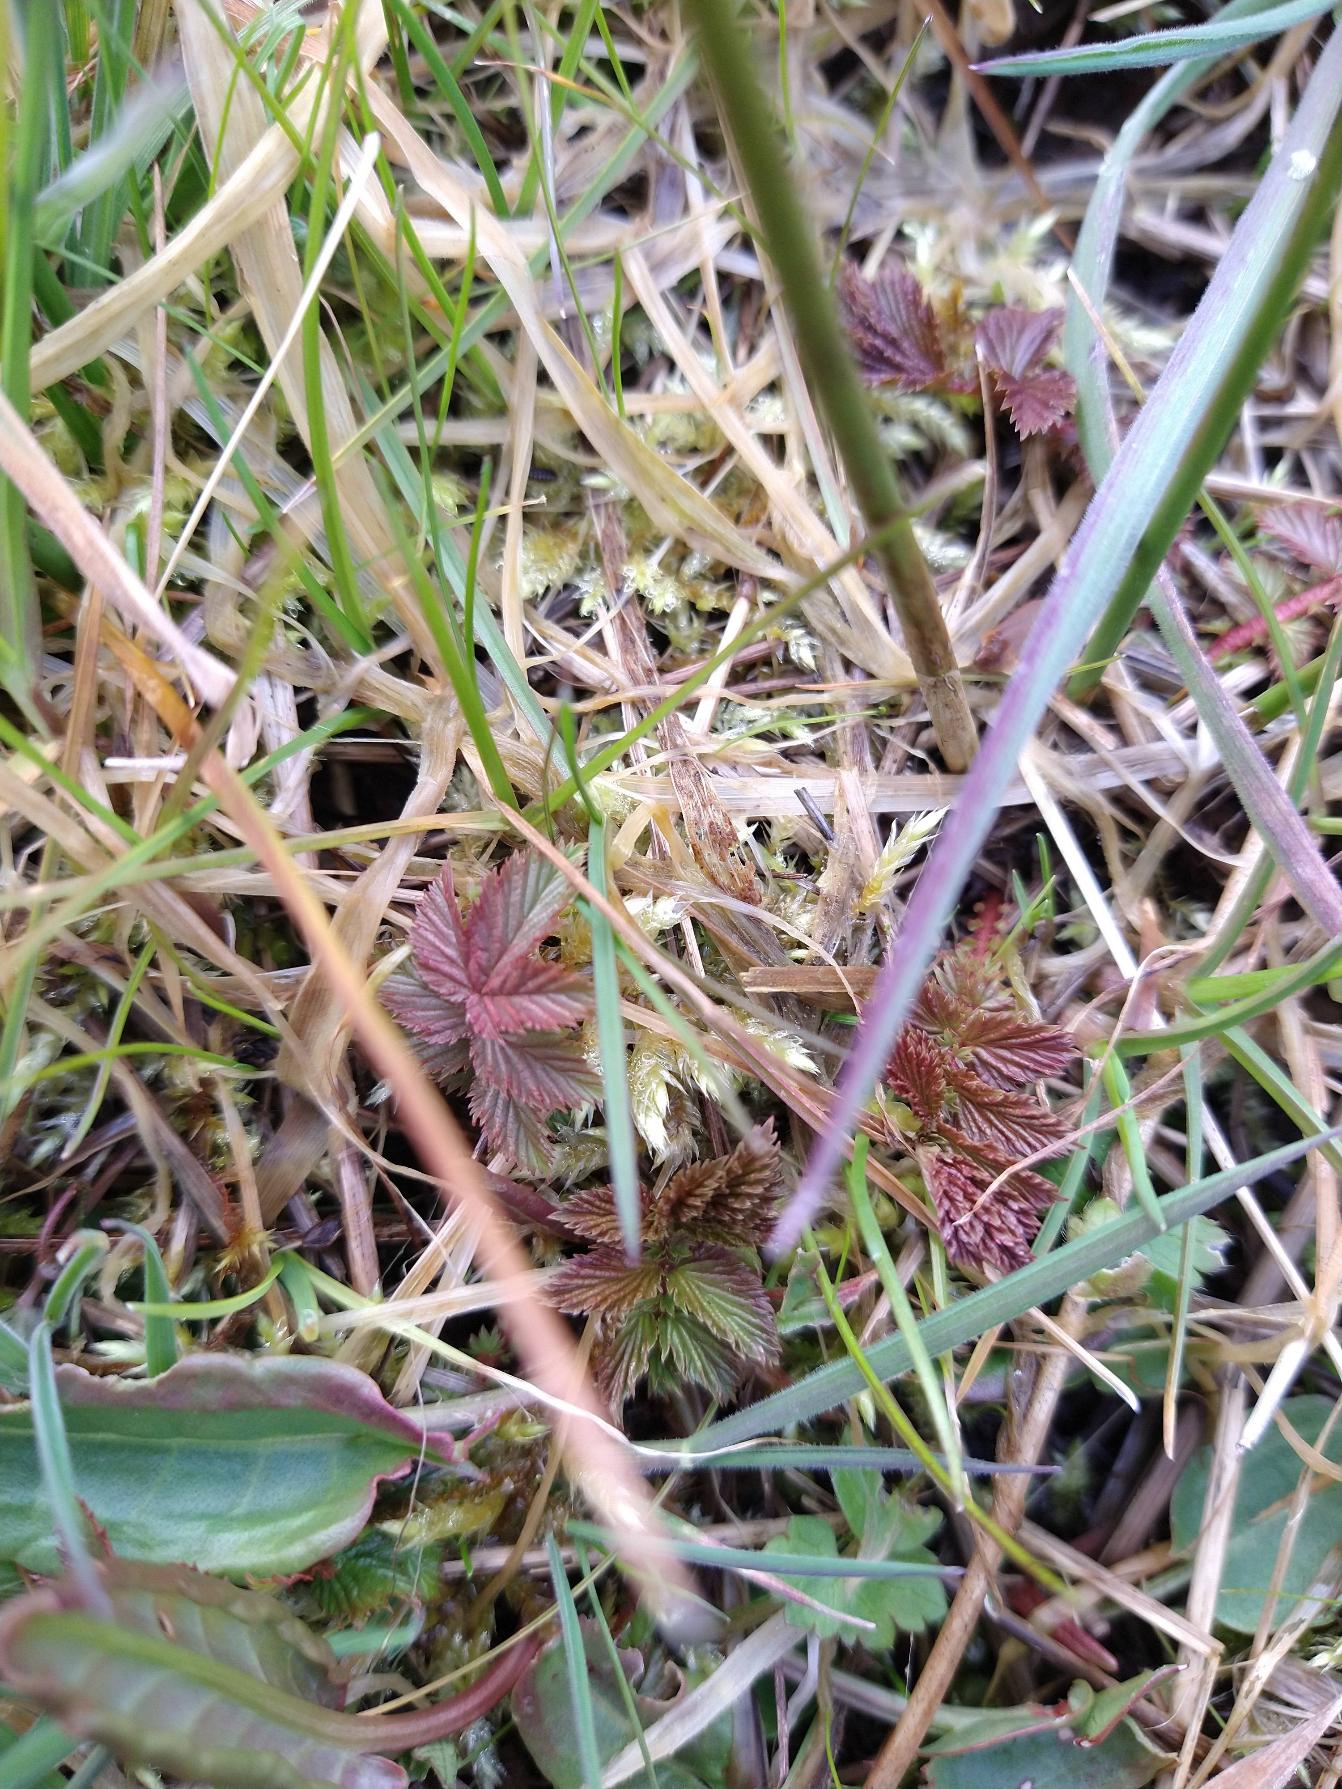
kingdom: Plantae
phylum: Tracheophyta
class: Magnoliopsida
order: Rosales
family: Rosaceae
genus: Filipendula
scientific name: Filipendula ulmaria
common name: Almindelig mjødurt
